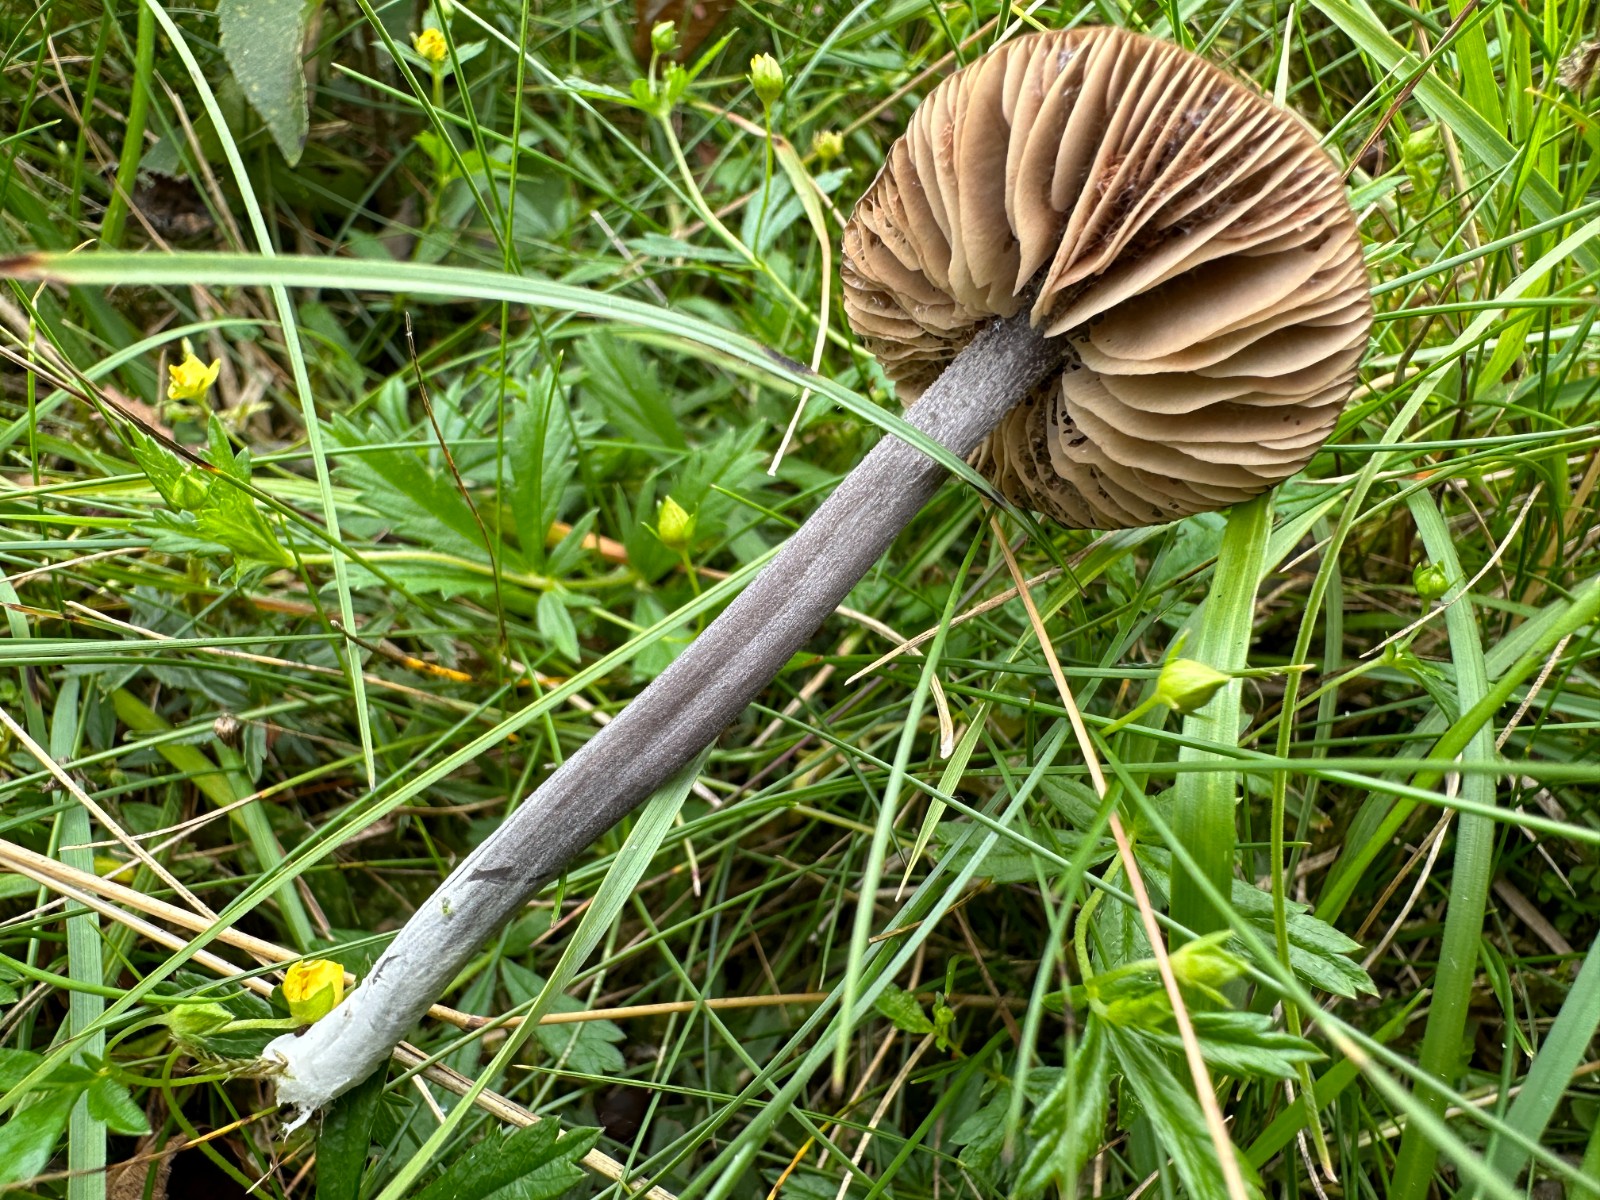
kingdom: Fungi
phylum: Basidiomycota
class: Agaricomycetes
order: Agaricales
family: Entolomataceae
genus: Entoloma
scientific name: Entoloma griseocyaneum
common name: gråblå rødblad
